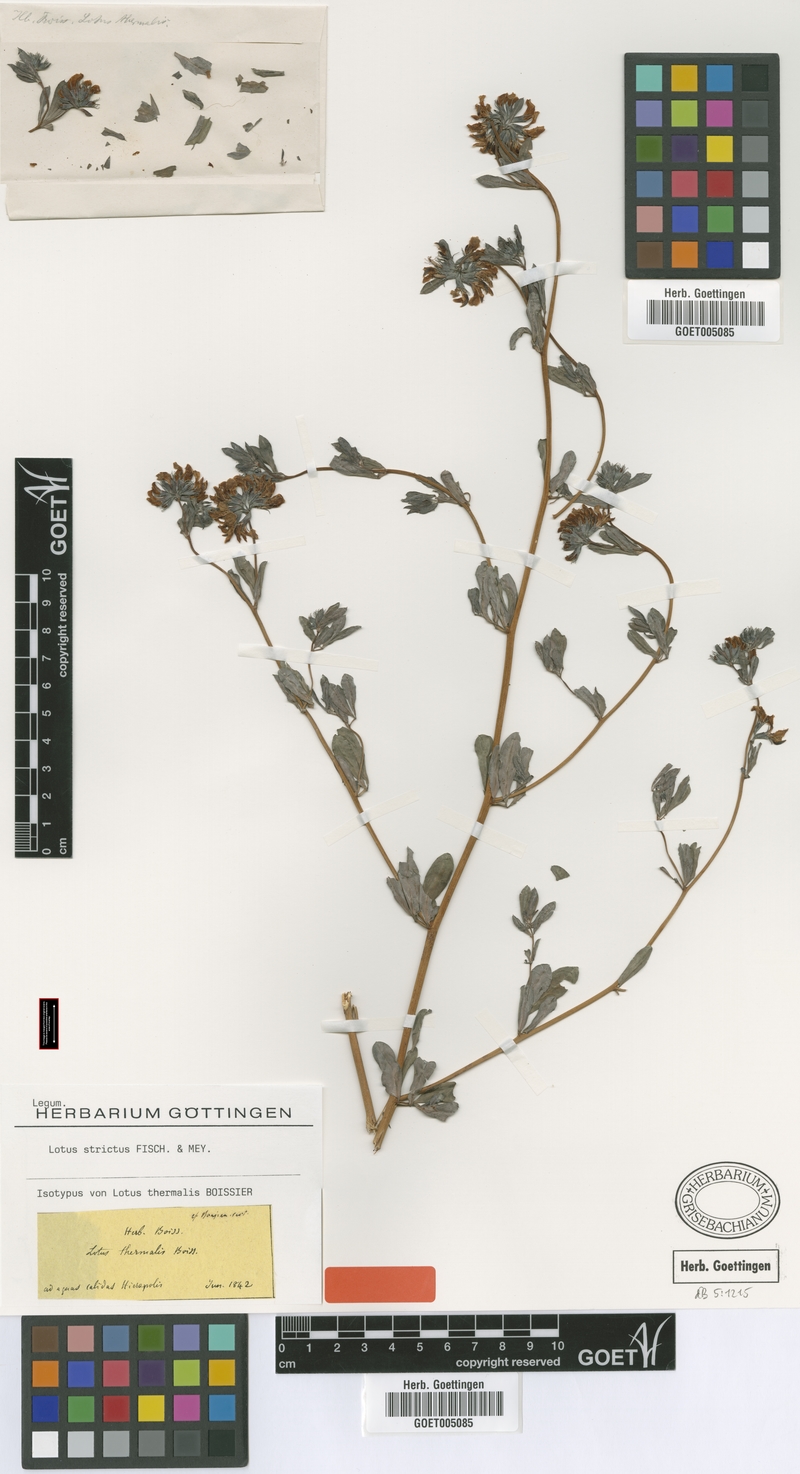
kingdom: Plantae
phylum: Tracheophyta
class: Magnoliopsida
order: Fabales
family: Fabaceae
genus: Lotus
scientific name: Lotus strictus
